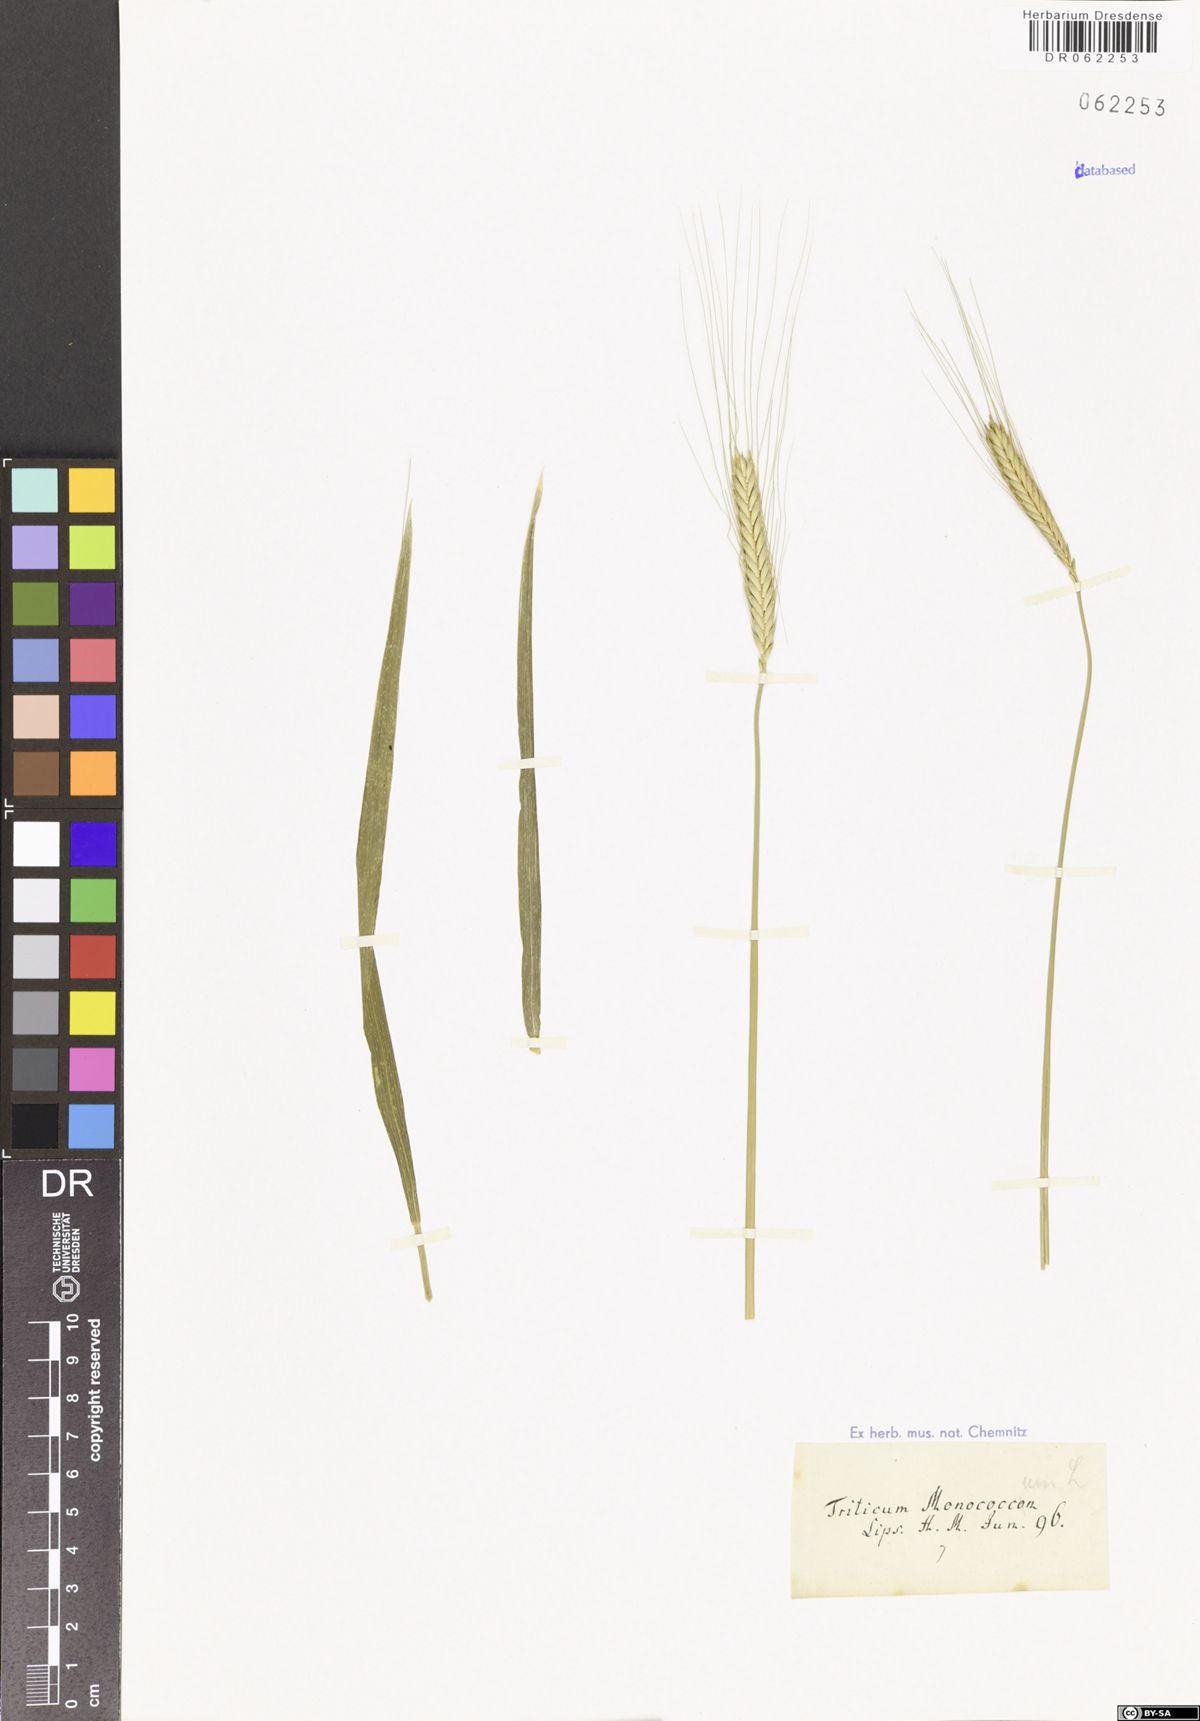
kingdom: Plantae
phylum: Tracheophyta
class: Liliopsida
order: Poales
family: Poaceae
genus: Triticum
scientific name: Triticum monococcum
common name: Einkorn
